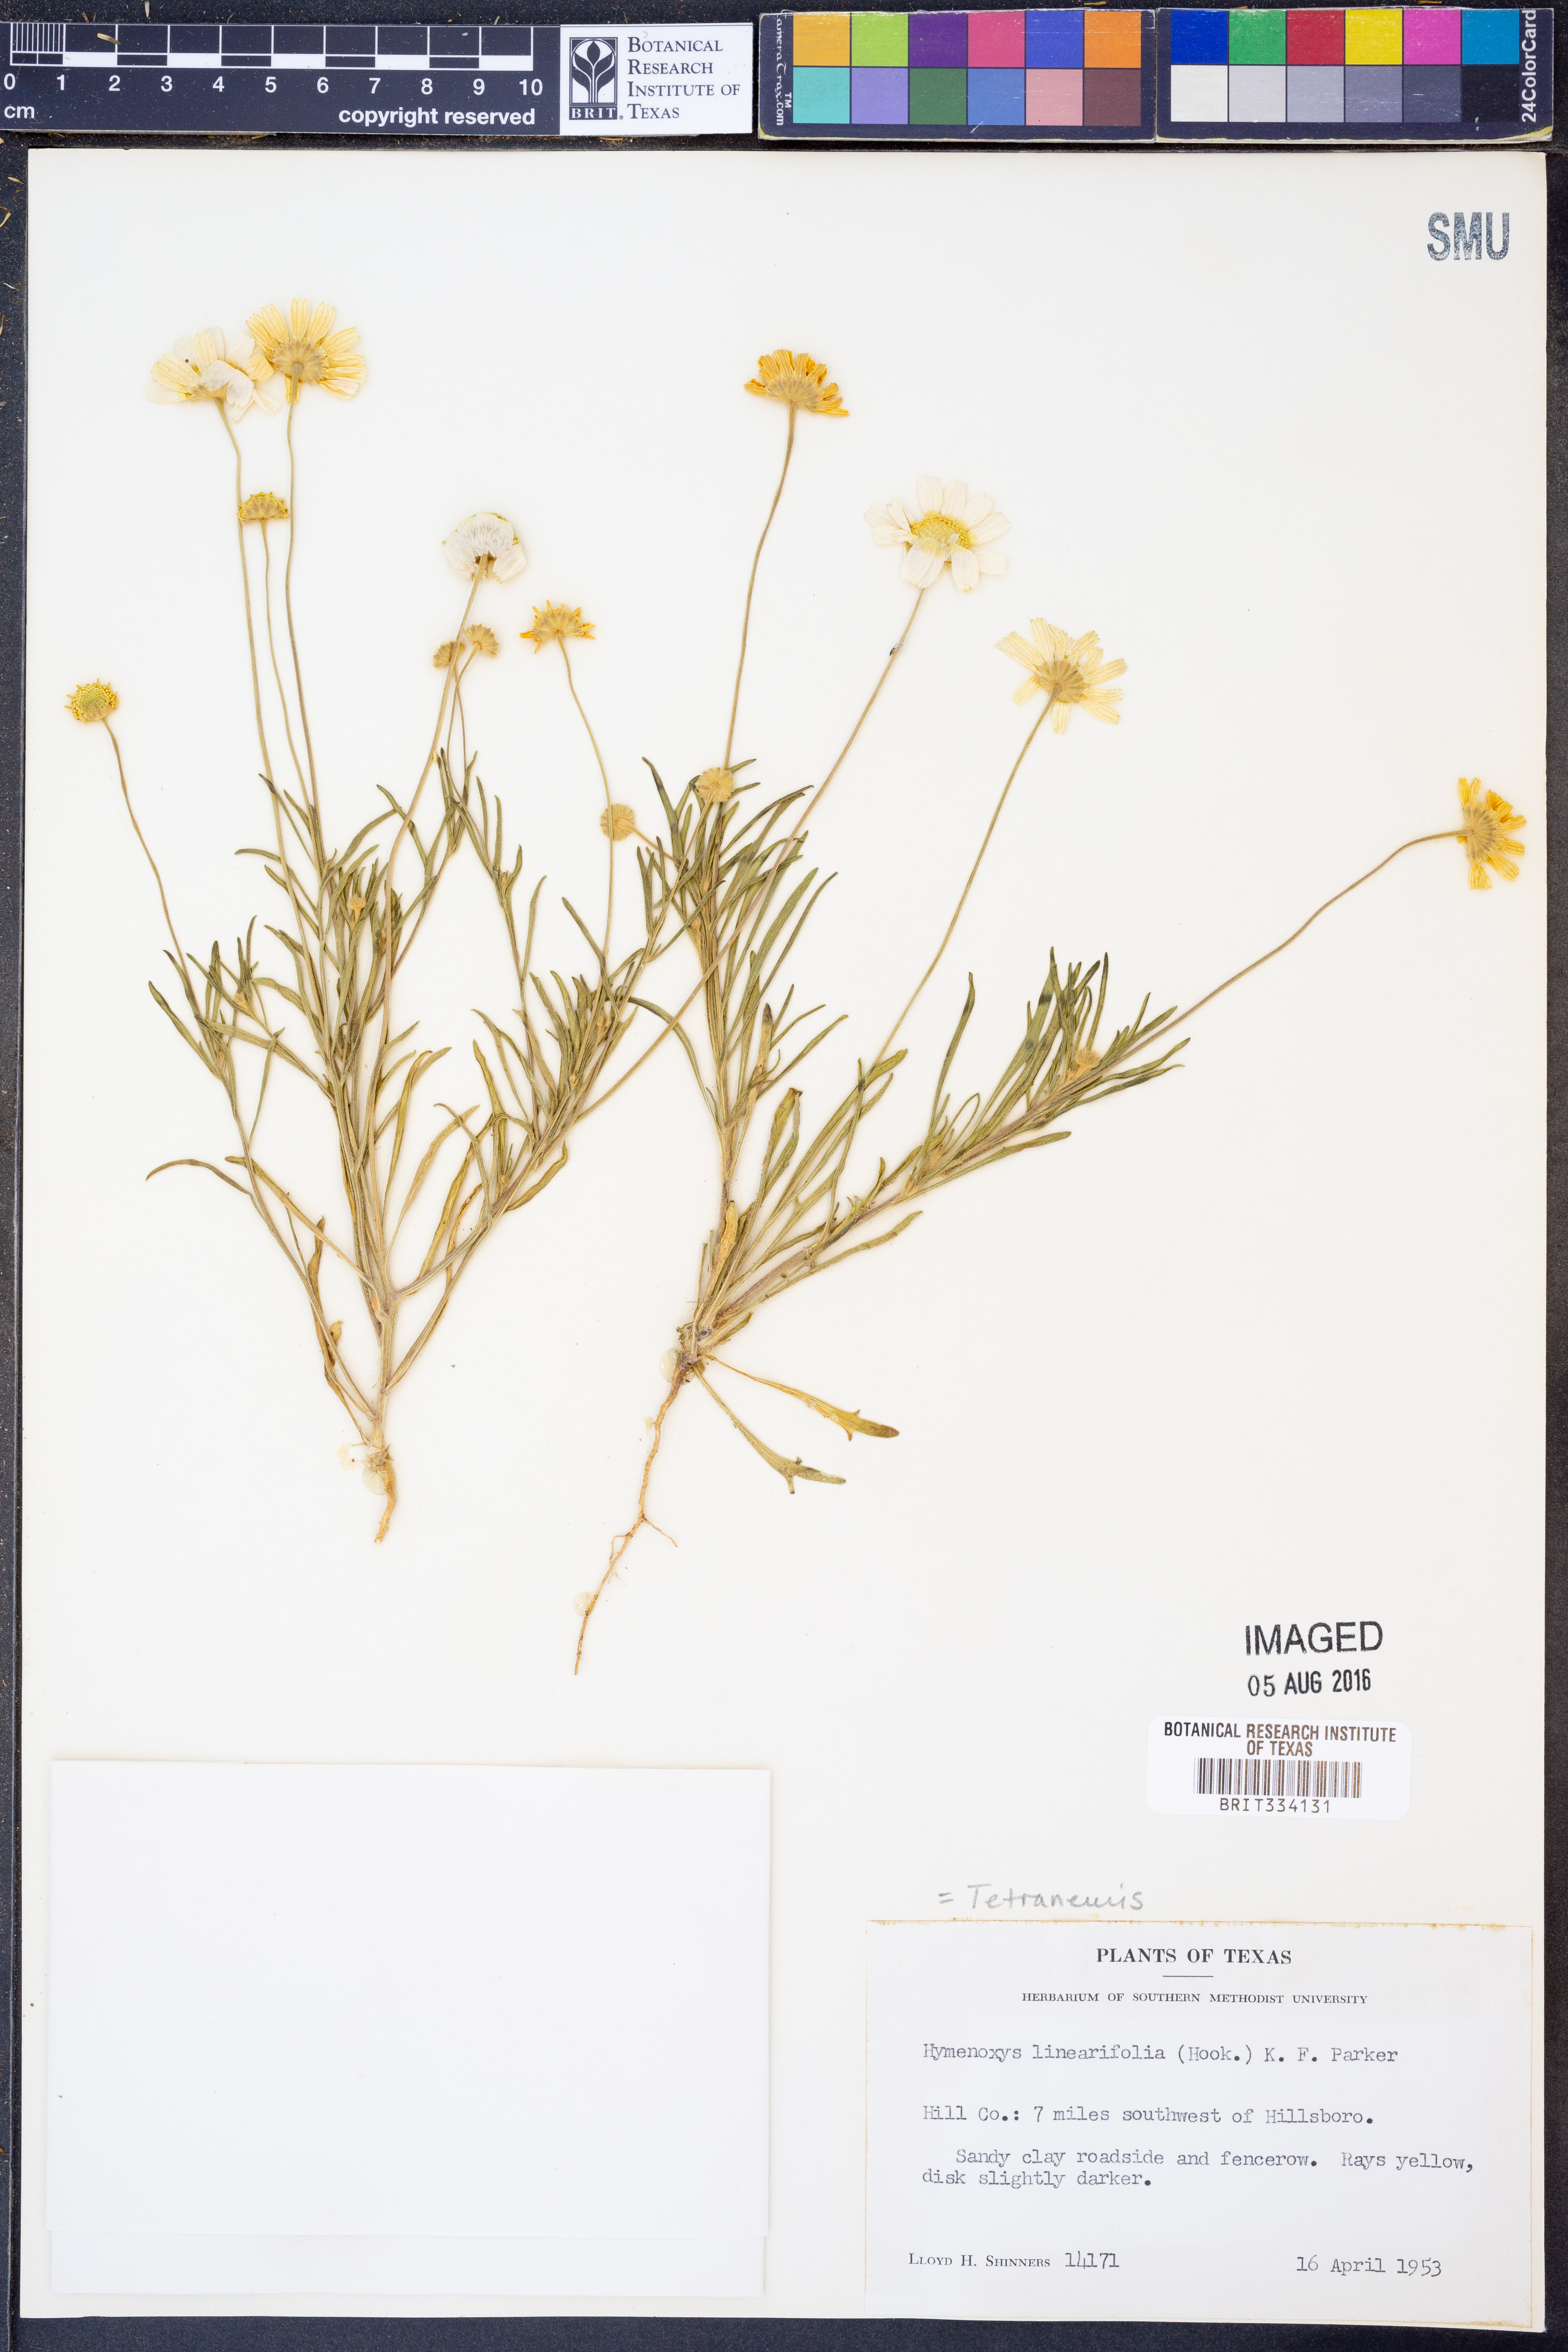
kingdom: Plantae
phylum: Tracheophyta
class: Magnoliopsida
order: Asterales
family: Asteraceae
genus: Tetraneuris
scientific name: Tetraneuris linearifolia
